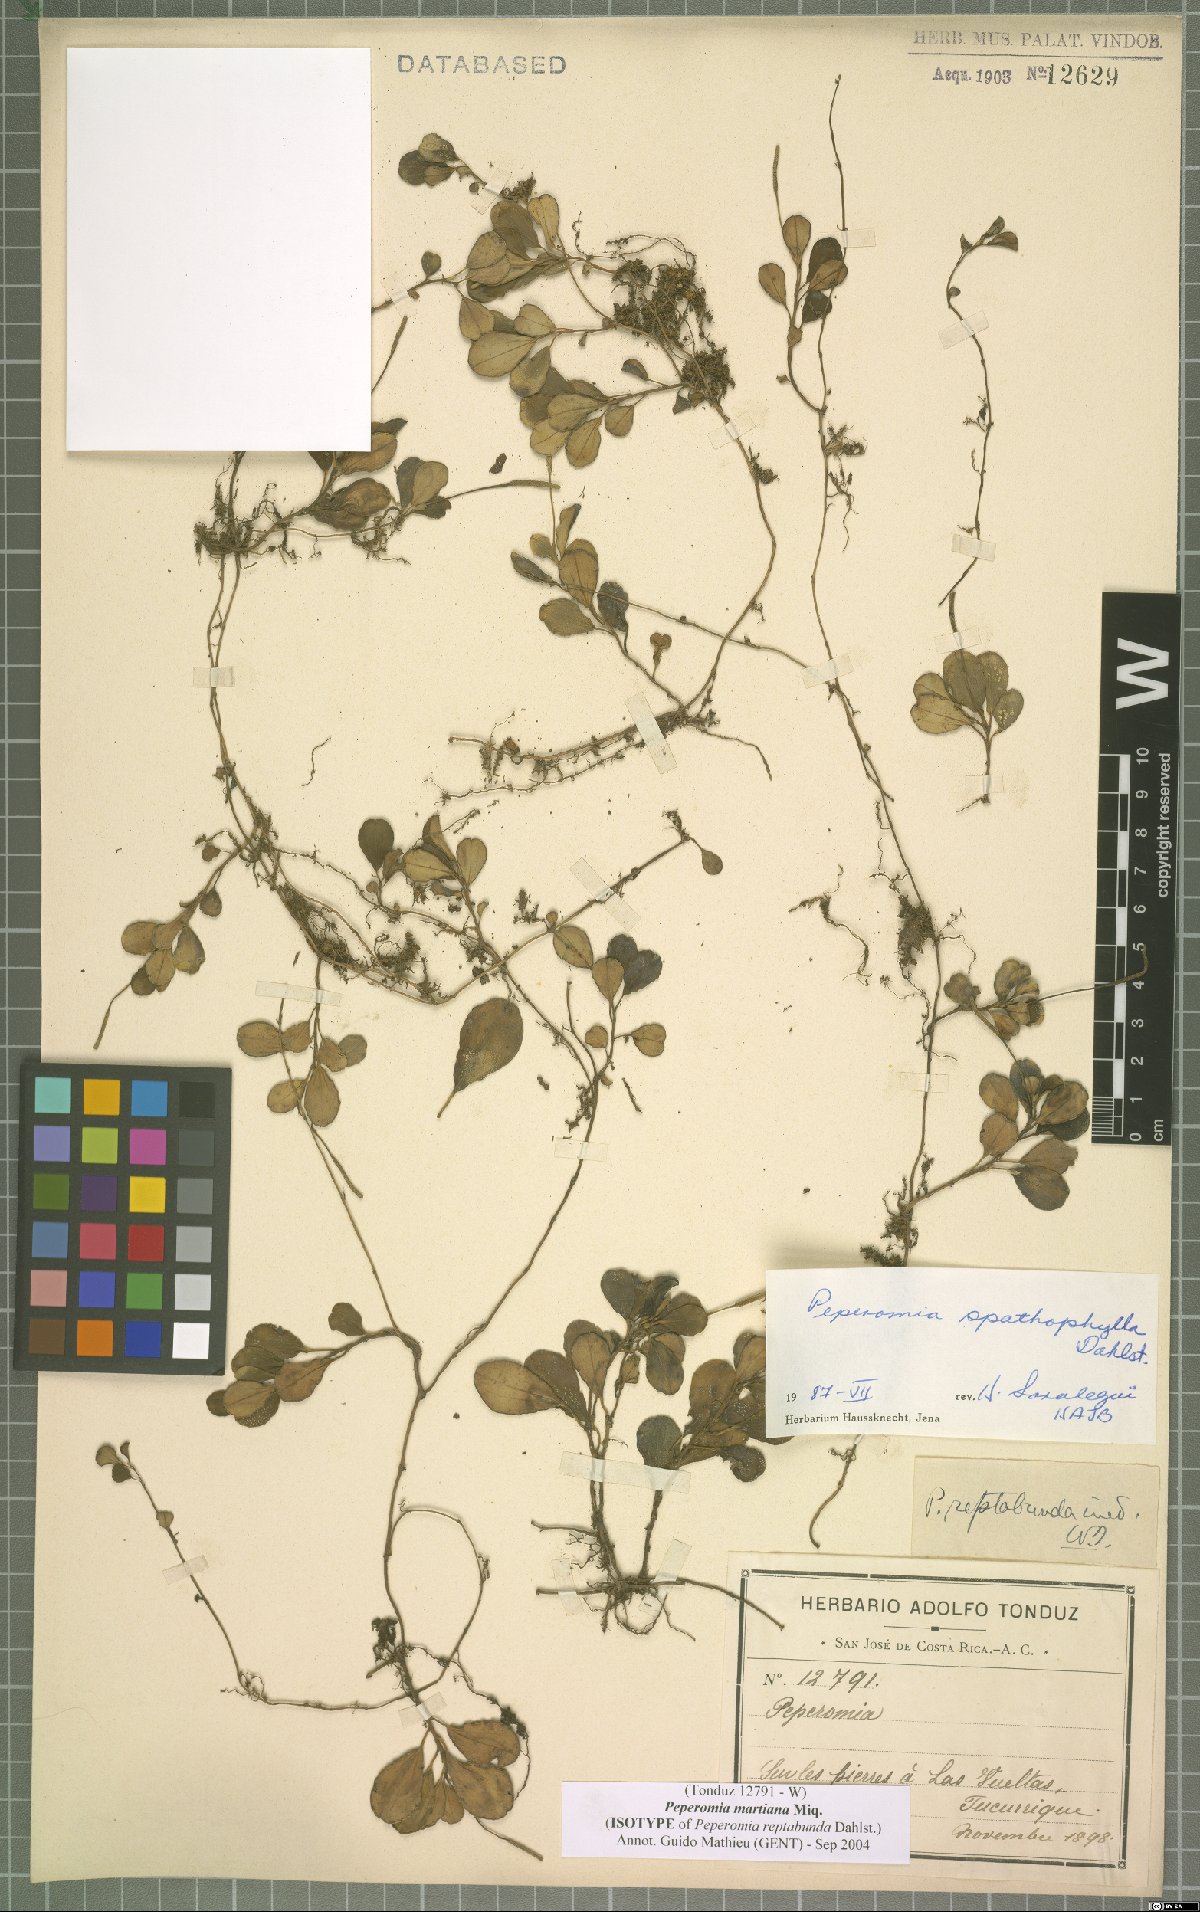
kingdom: Plantae
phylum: Tracheophyta
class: Magnoliopsida
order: Piperales
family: Piperaceae
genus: Peperomia
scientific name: Peperomia martiana
